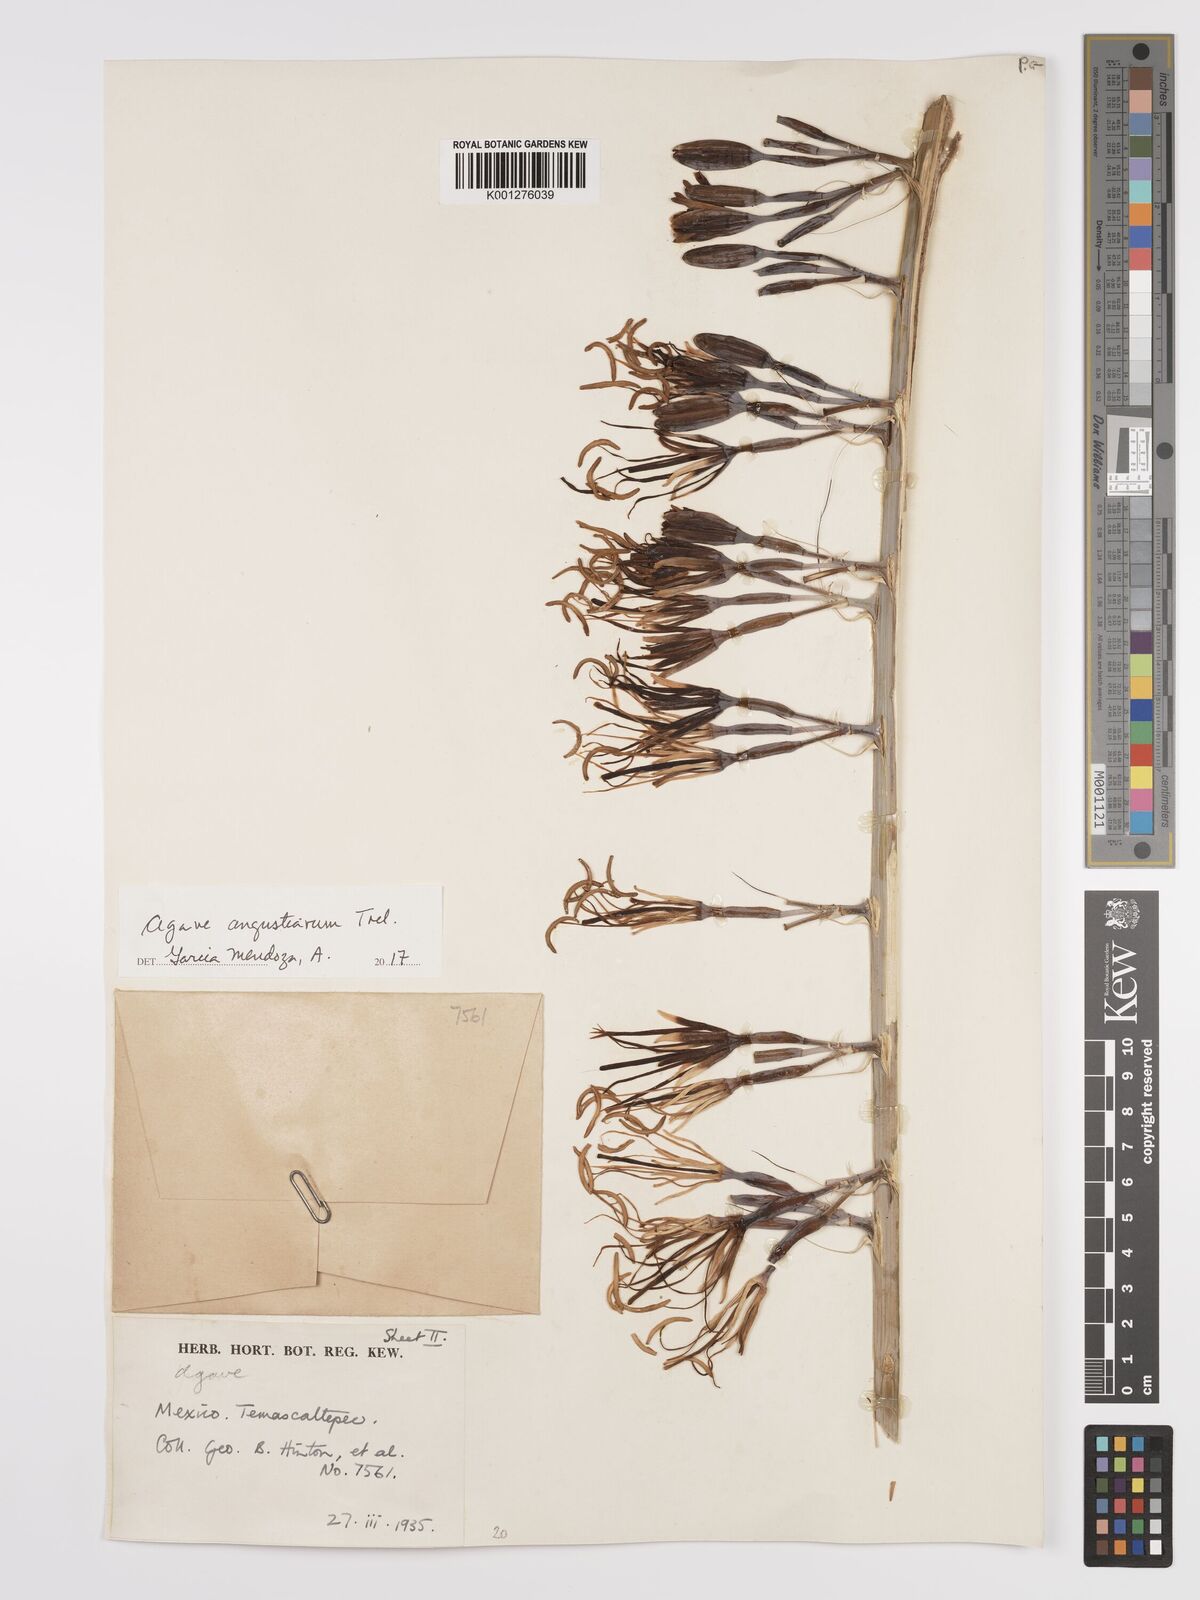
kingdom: Plantae
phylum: Tracheophyta
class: Liliopsida
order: Asparagales
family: Asparagaceae
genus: Agave
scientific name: Agave angustiarum
